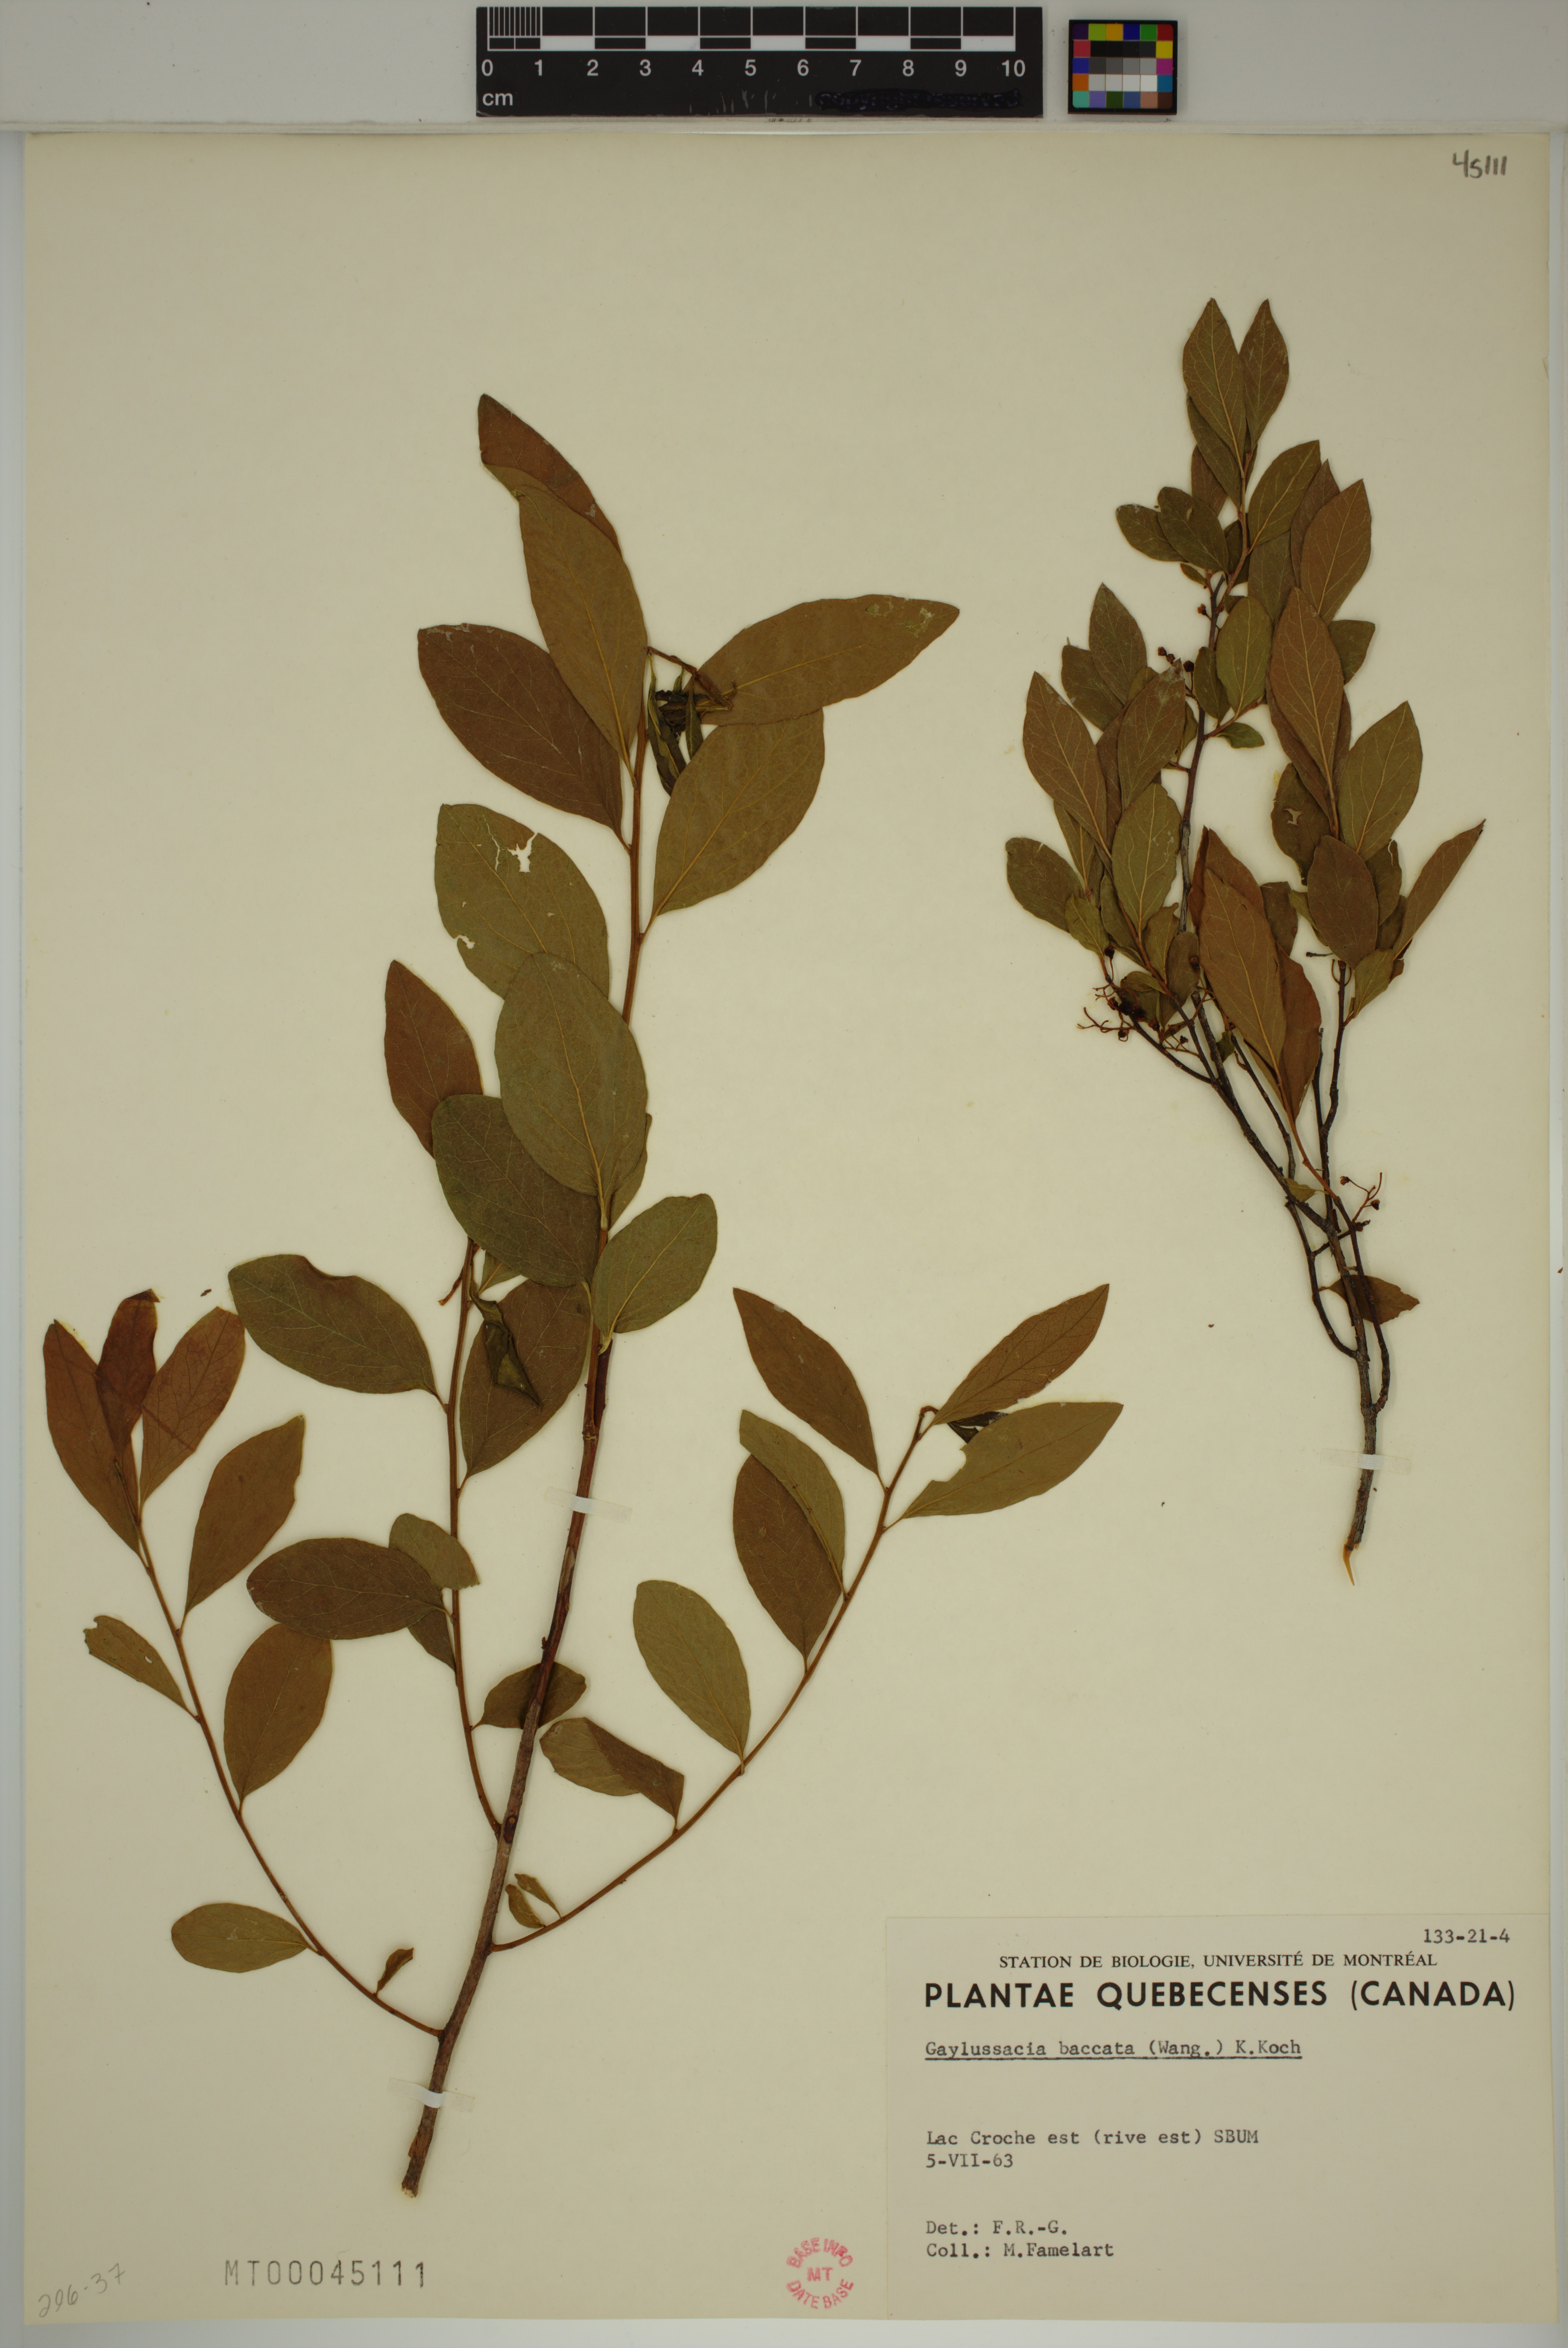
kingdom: Plantae
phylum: Tracheophyta
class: Magnoliopsida
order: Ericales
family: Ericaceae
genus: Gaylussacia
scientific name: Gaylussacia baccata
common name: Black huckleberry
